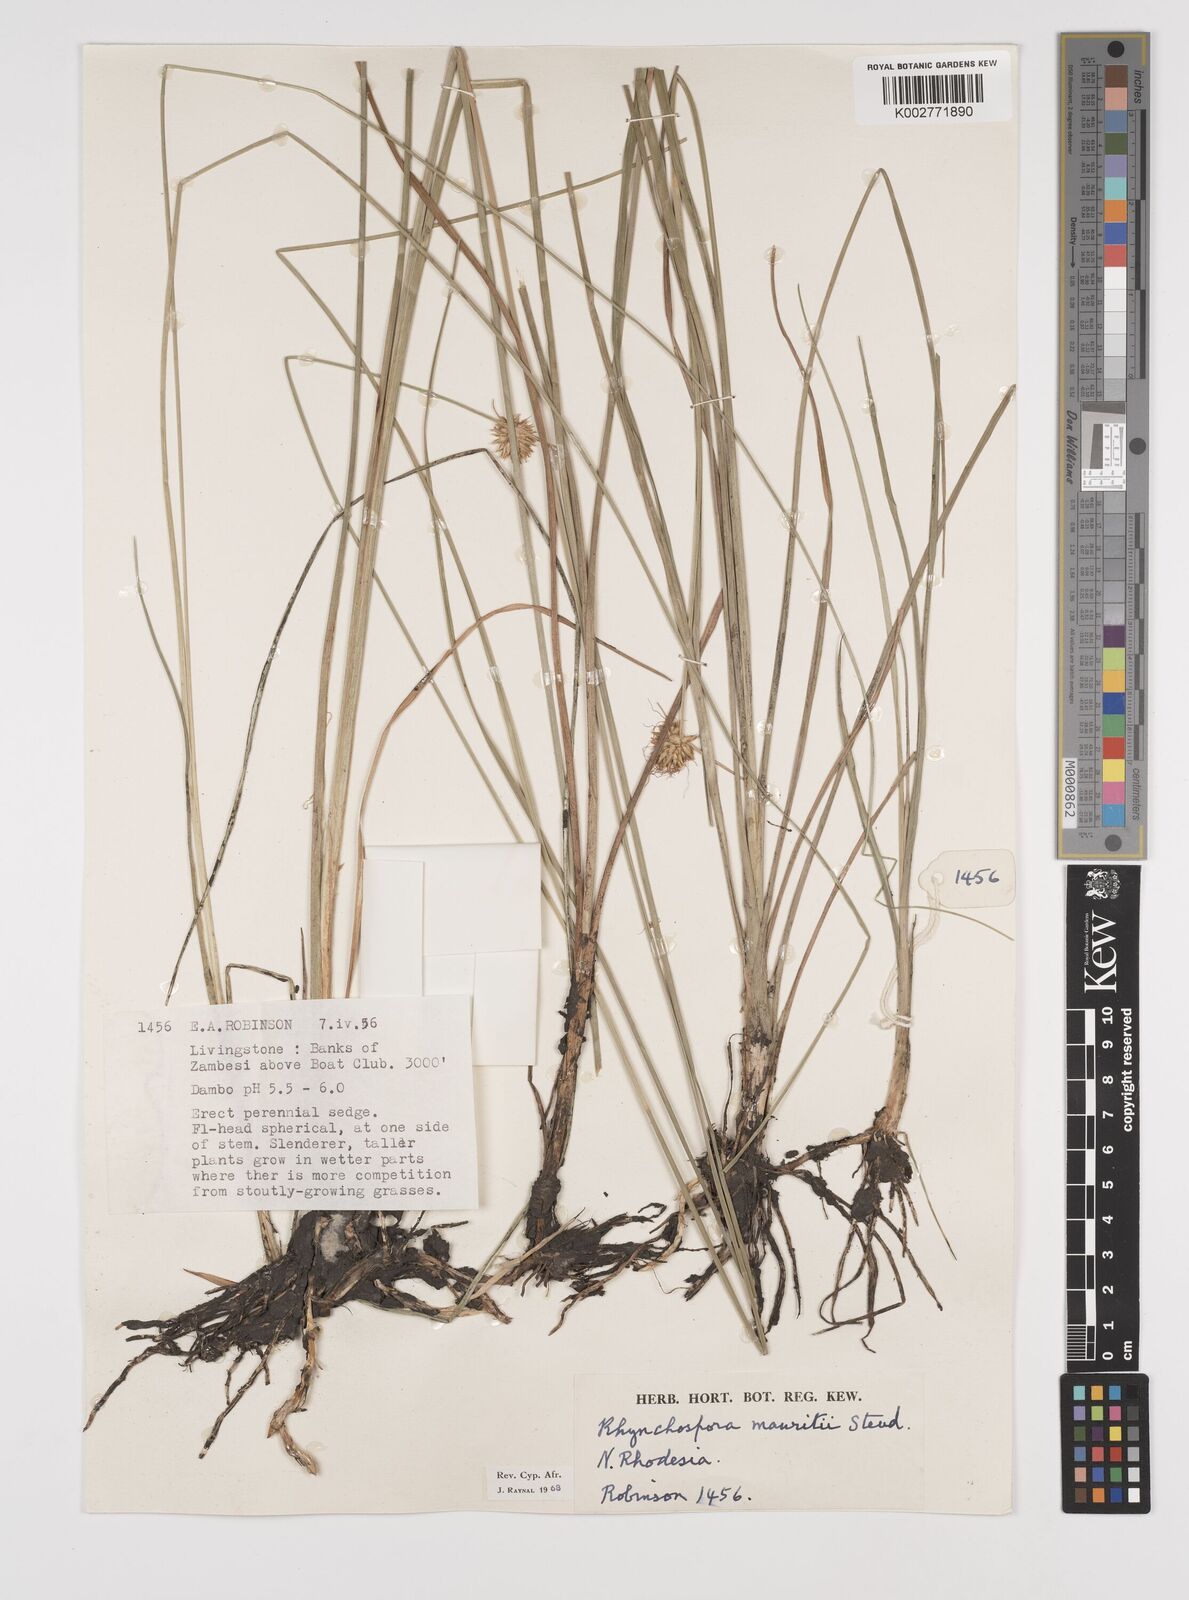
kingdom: Plantae
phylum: Tracheophyta
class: Liliopsida
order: Poales
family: Cyperaceae
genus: Rhynchospora
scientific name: Rhynchospora holoschoenoides
